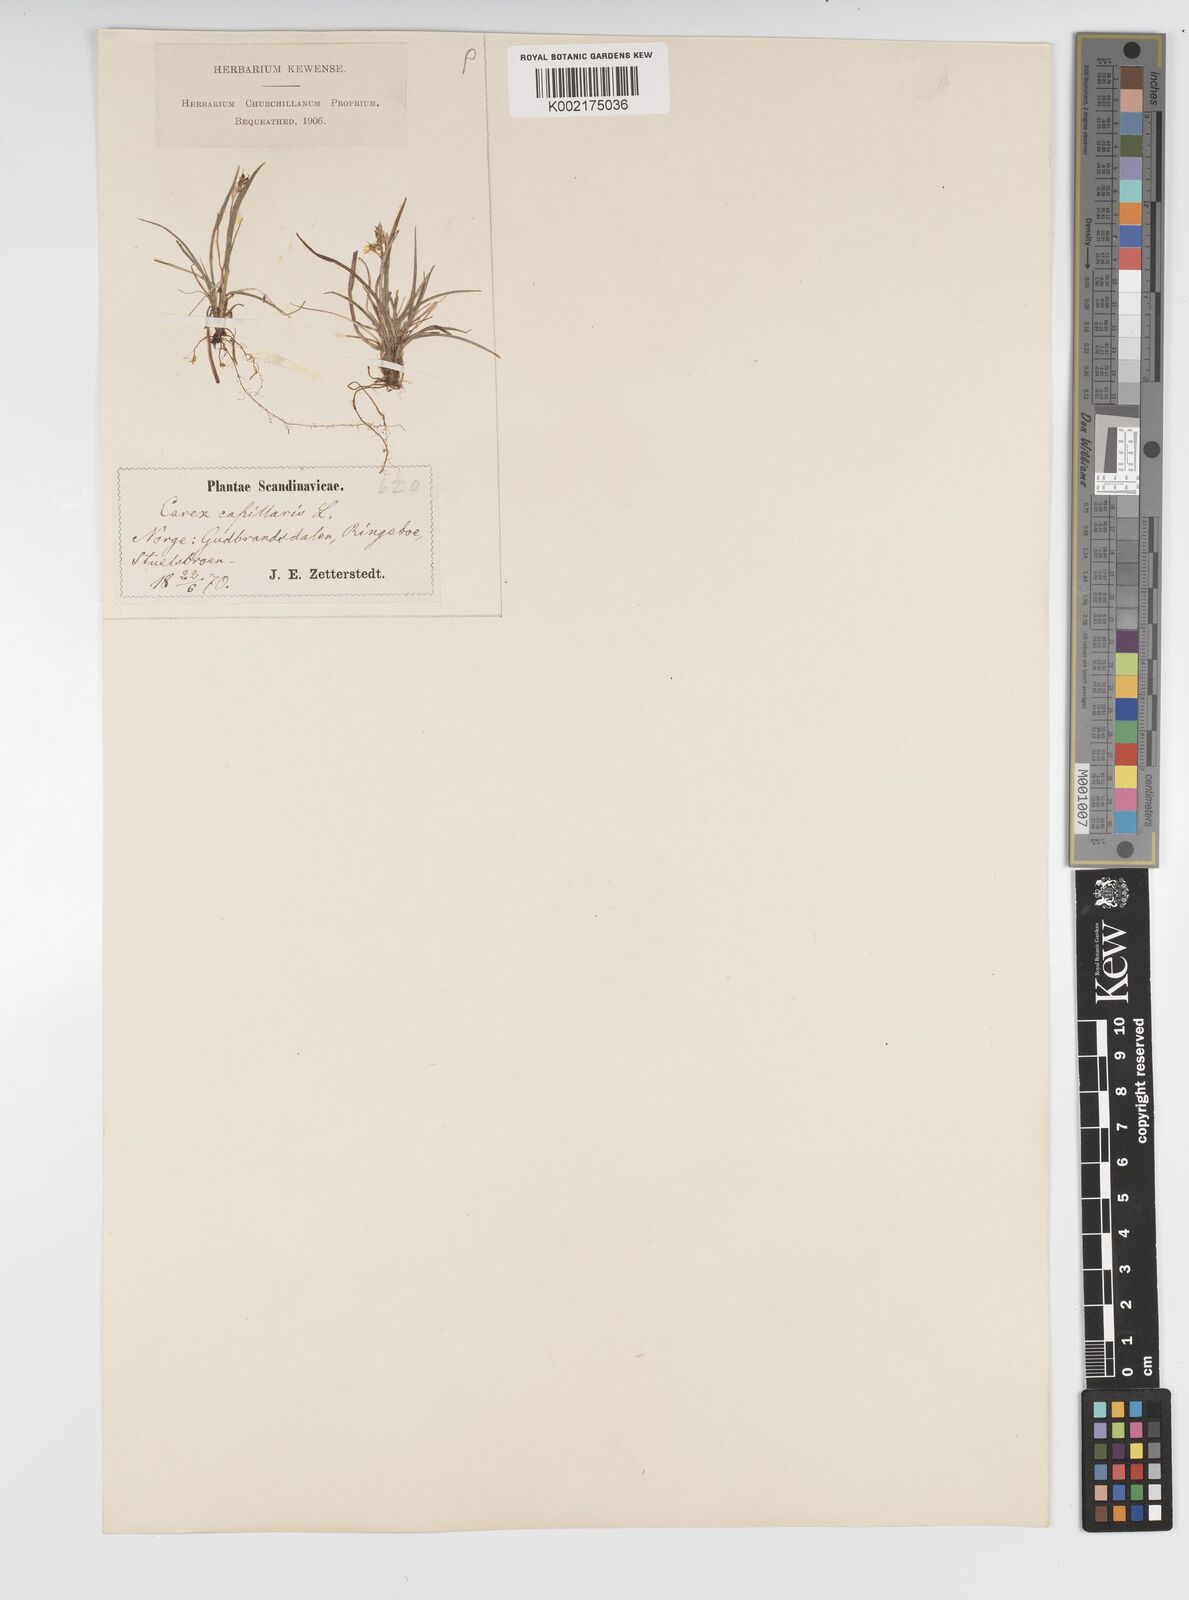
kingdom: Plantae
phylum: Tracheophyta
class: Liliopsida
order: Poales
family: Cyperaceae
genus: Carex
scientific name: Carex capillaris
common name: Hair sedge
